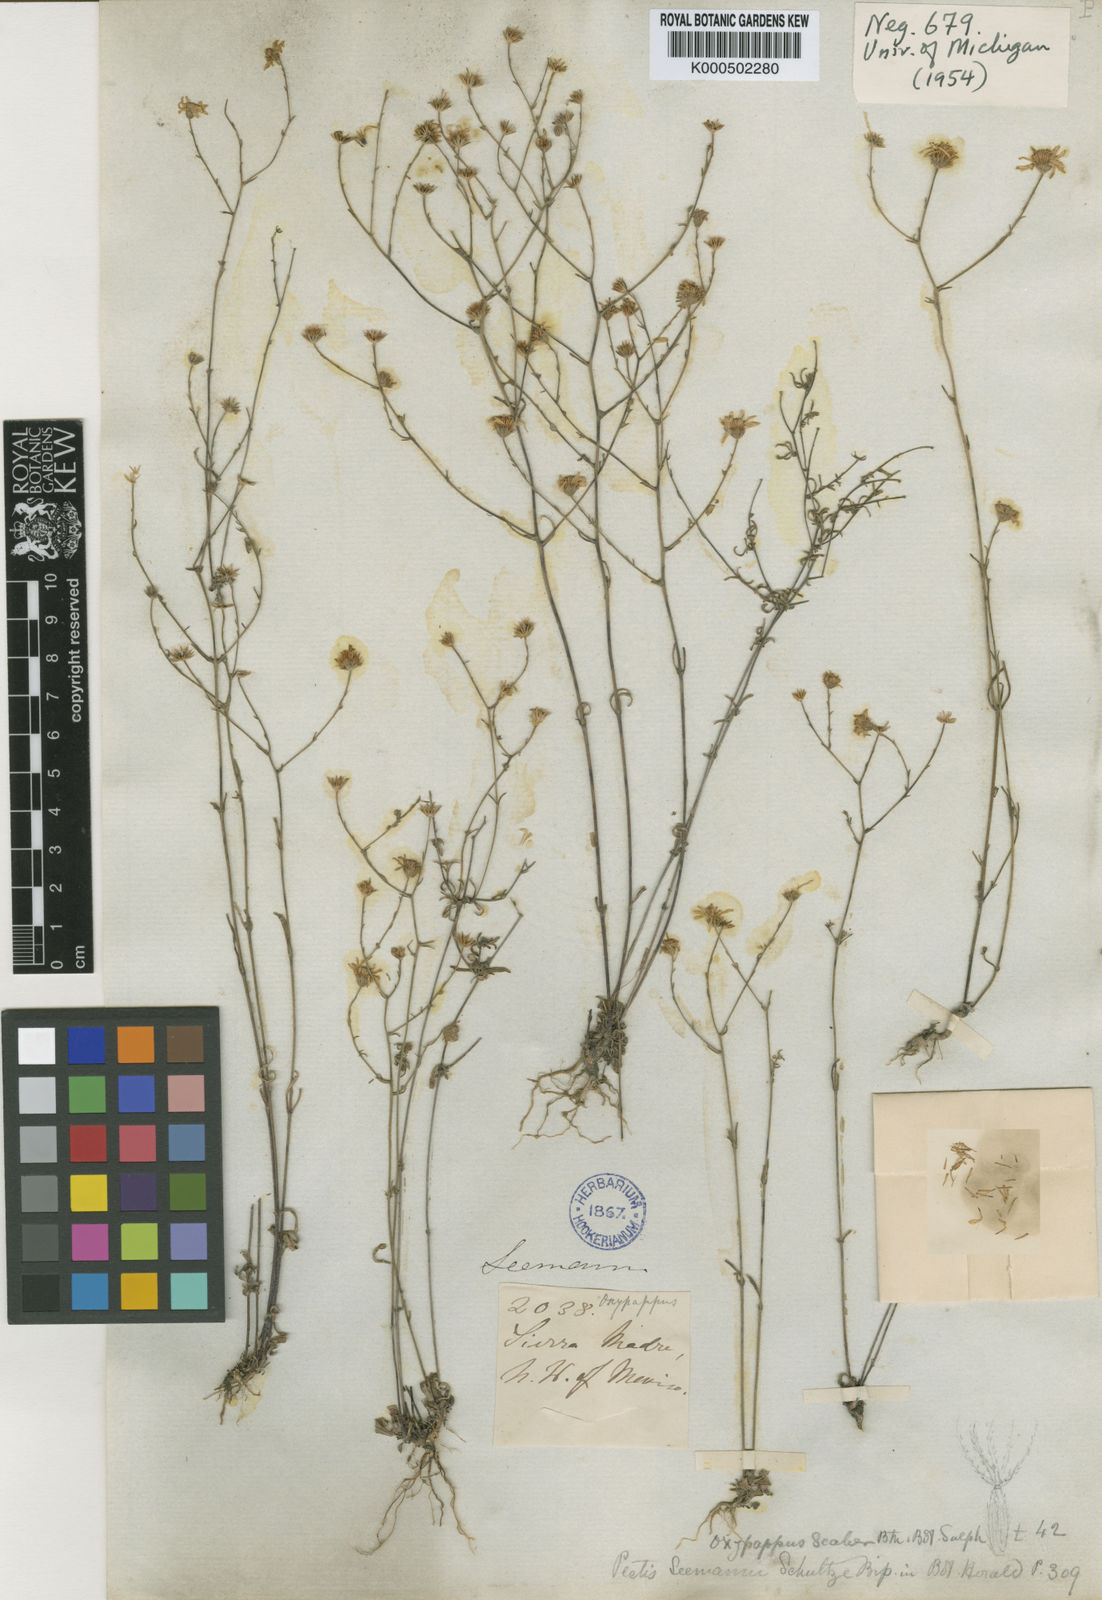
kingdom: Plantae
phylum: Tracheophyta
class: Magnoliopsida
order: Asterales
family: Asteraceae
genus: Oxypappus
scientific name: Oxypappus scaber
